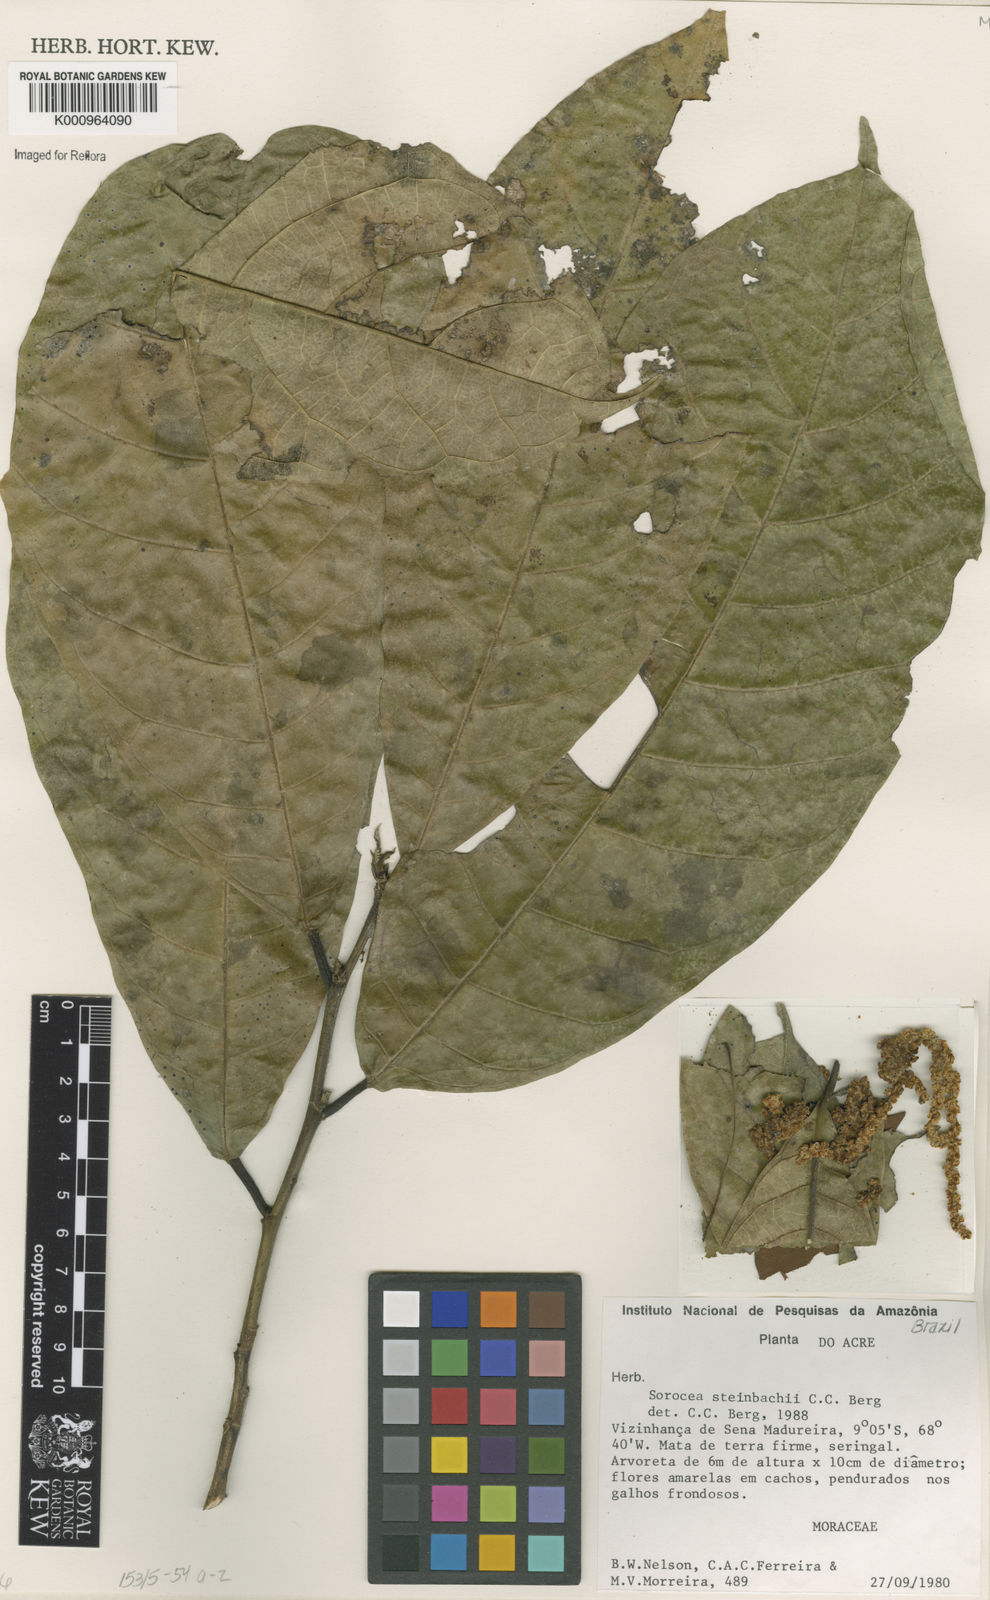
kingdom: Plantae
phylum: Tracheophyta
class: Magnoliopsida
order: Rosales
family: Moraceae
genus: Sorocea
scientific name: Sorocea steinbachii
